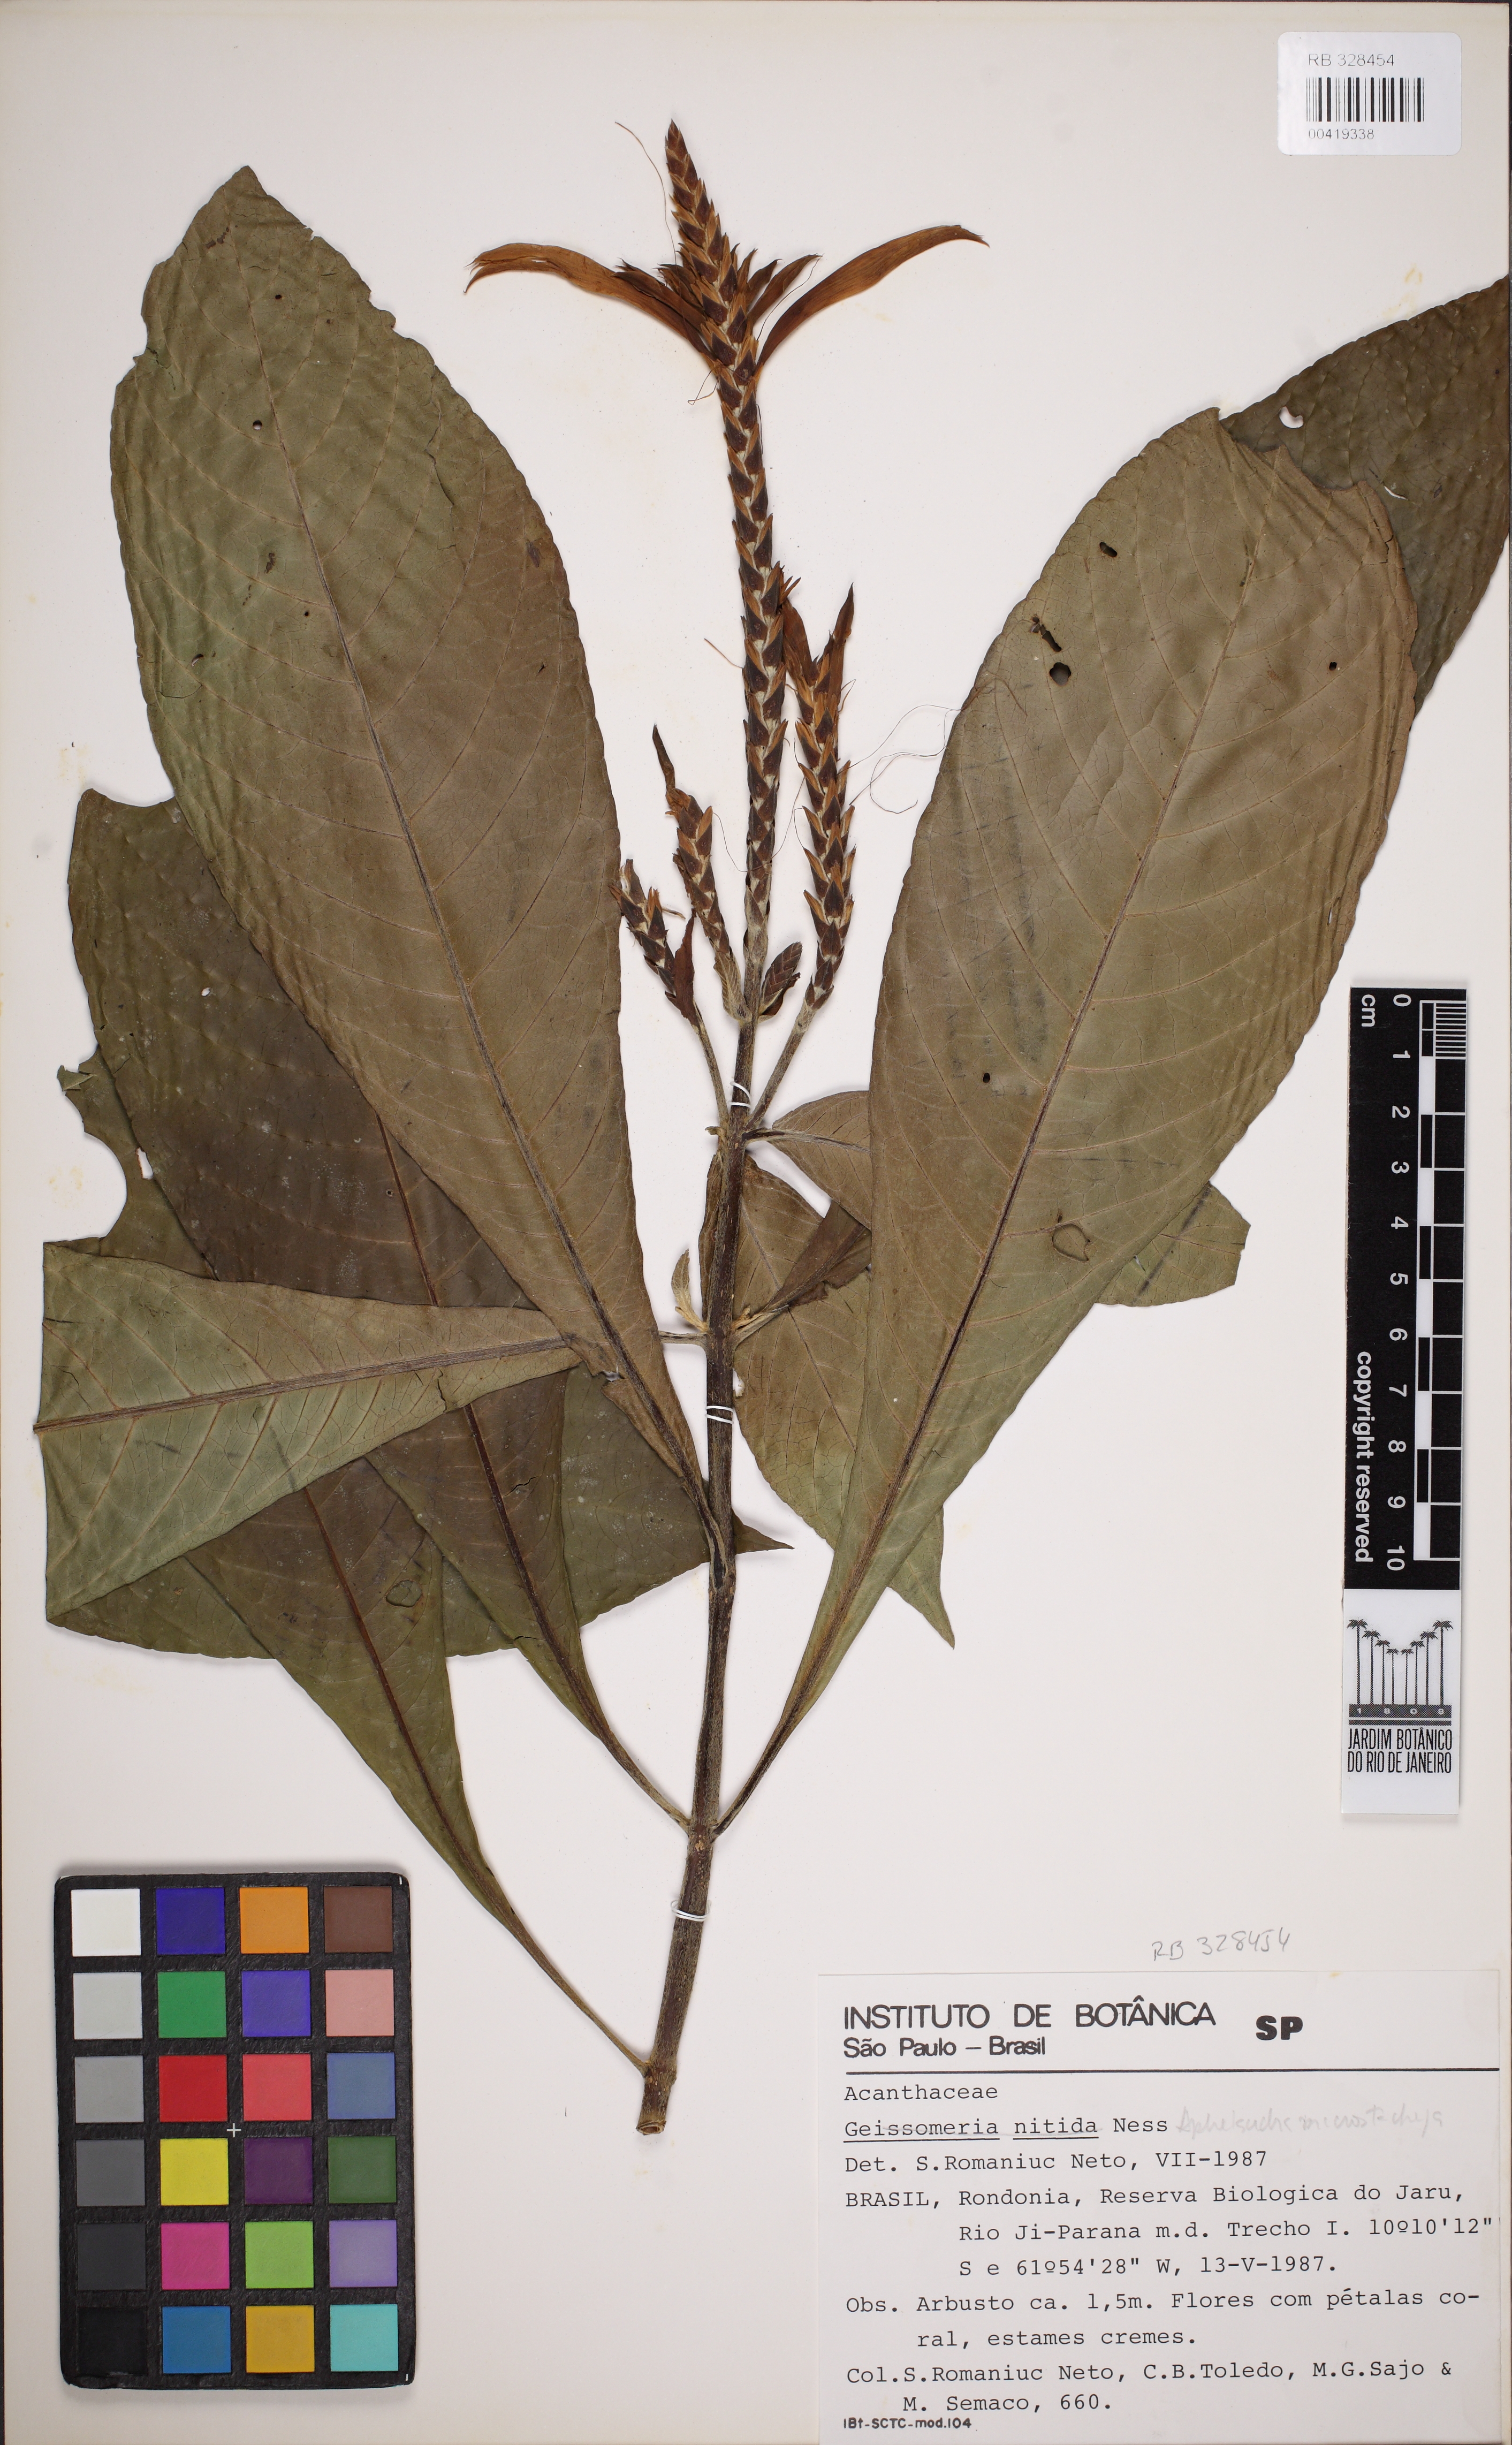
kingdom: Plantae
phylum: Tracheophyta
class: Magnoliopsida
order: Lamiales
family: Acanthaceae
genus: Aphelandra
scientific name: Aphelandra macrostachya
